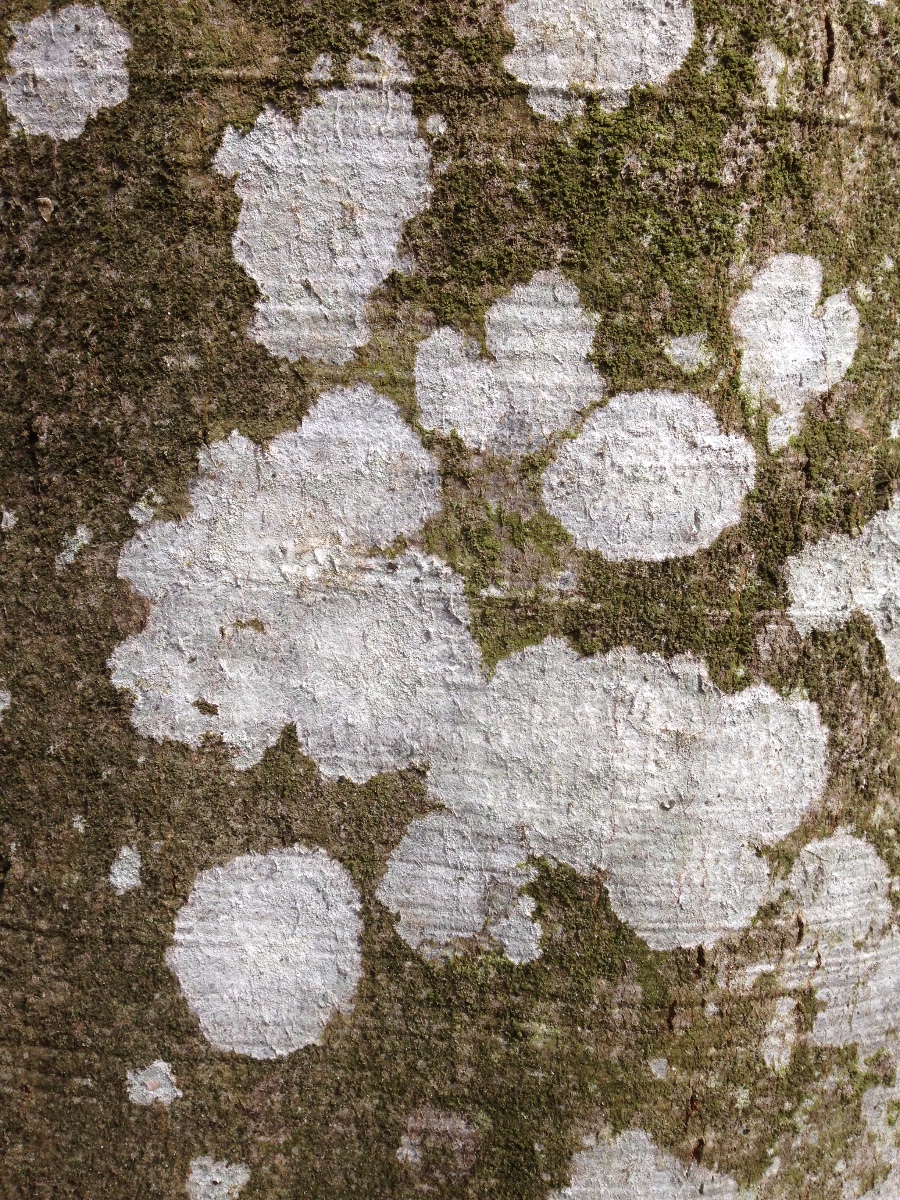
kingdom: Fungi
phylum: Ascomycota
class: Lecanoromycetes
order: Ostropales
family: Phlyctidaceae
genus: Phlyctis
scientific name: Phlyctis argena
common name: almindelig sølvlav
